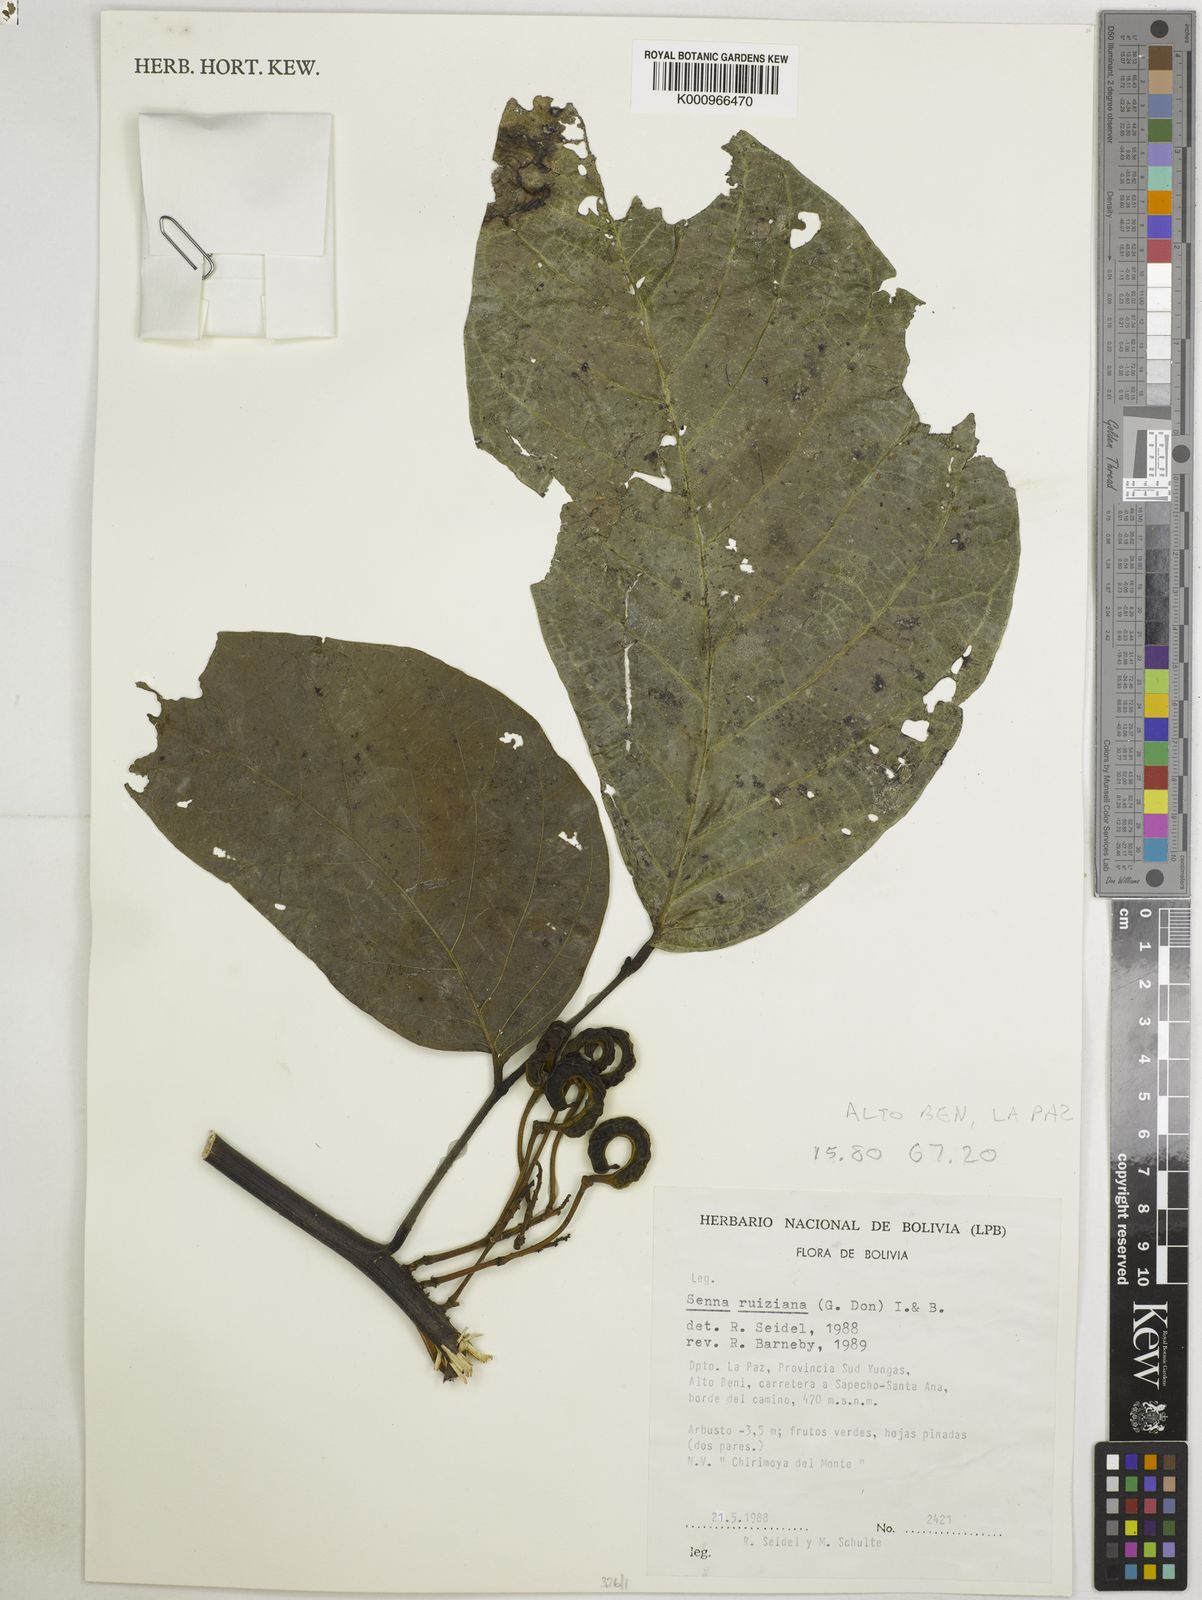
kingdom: Plantae
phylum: Tracheophyta
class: Magnoliopsida
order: Fabales
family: Fabaceae
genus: Senna
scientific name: Senna ruiziana
